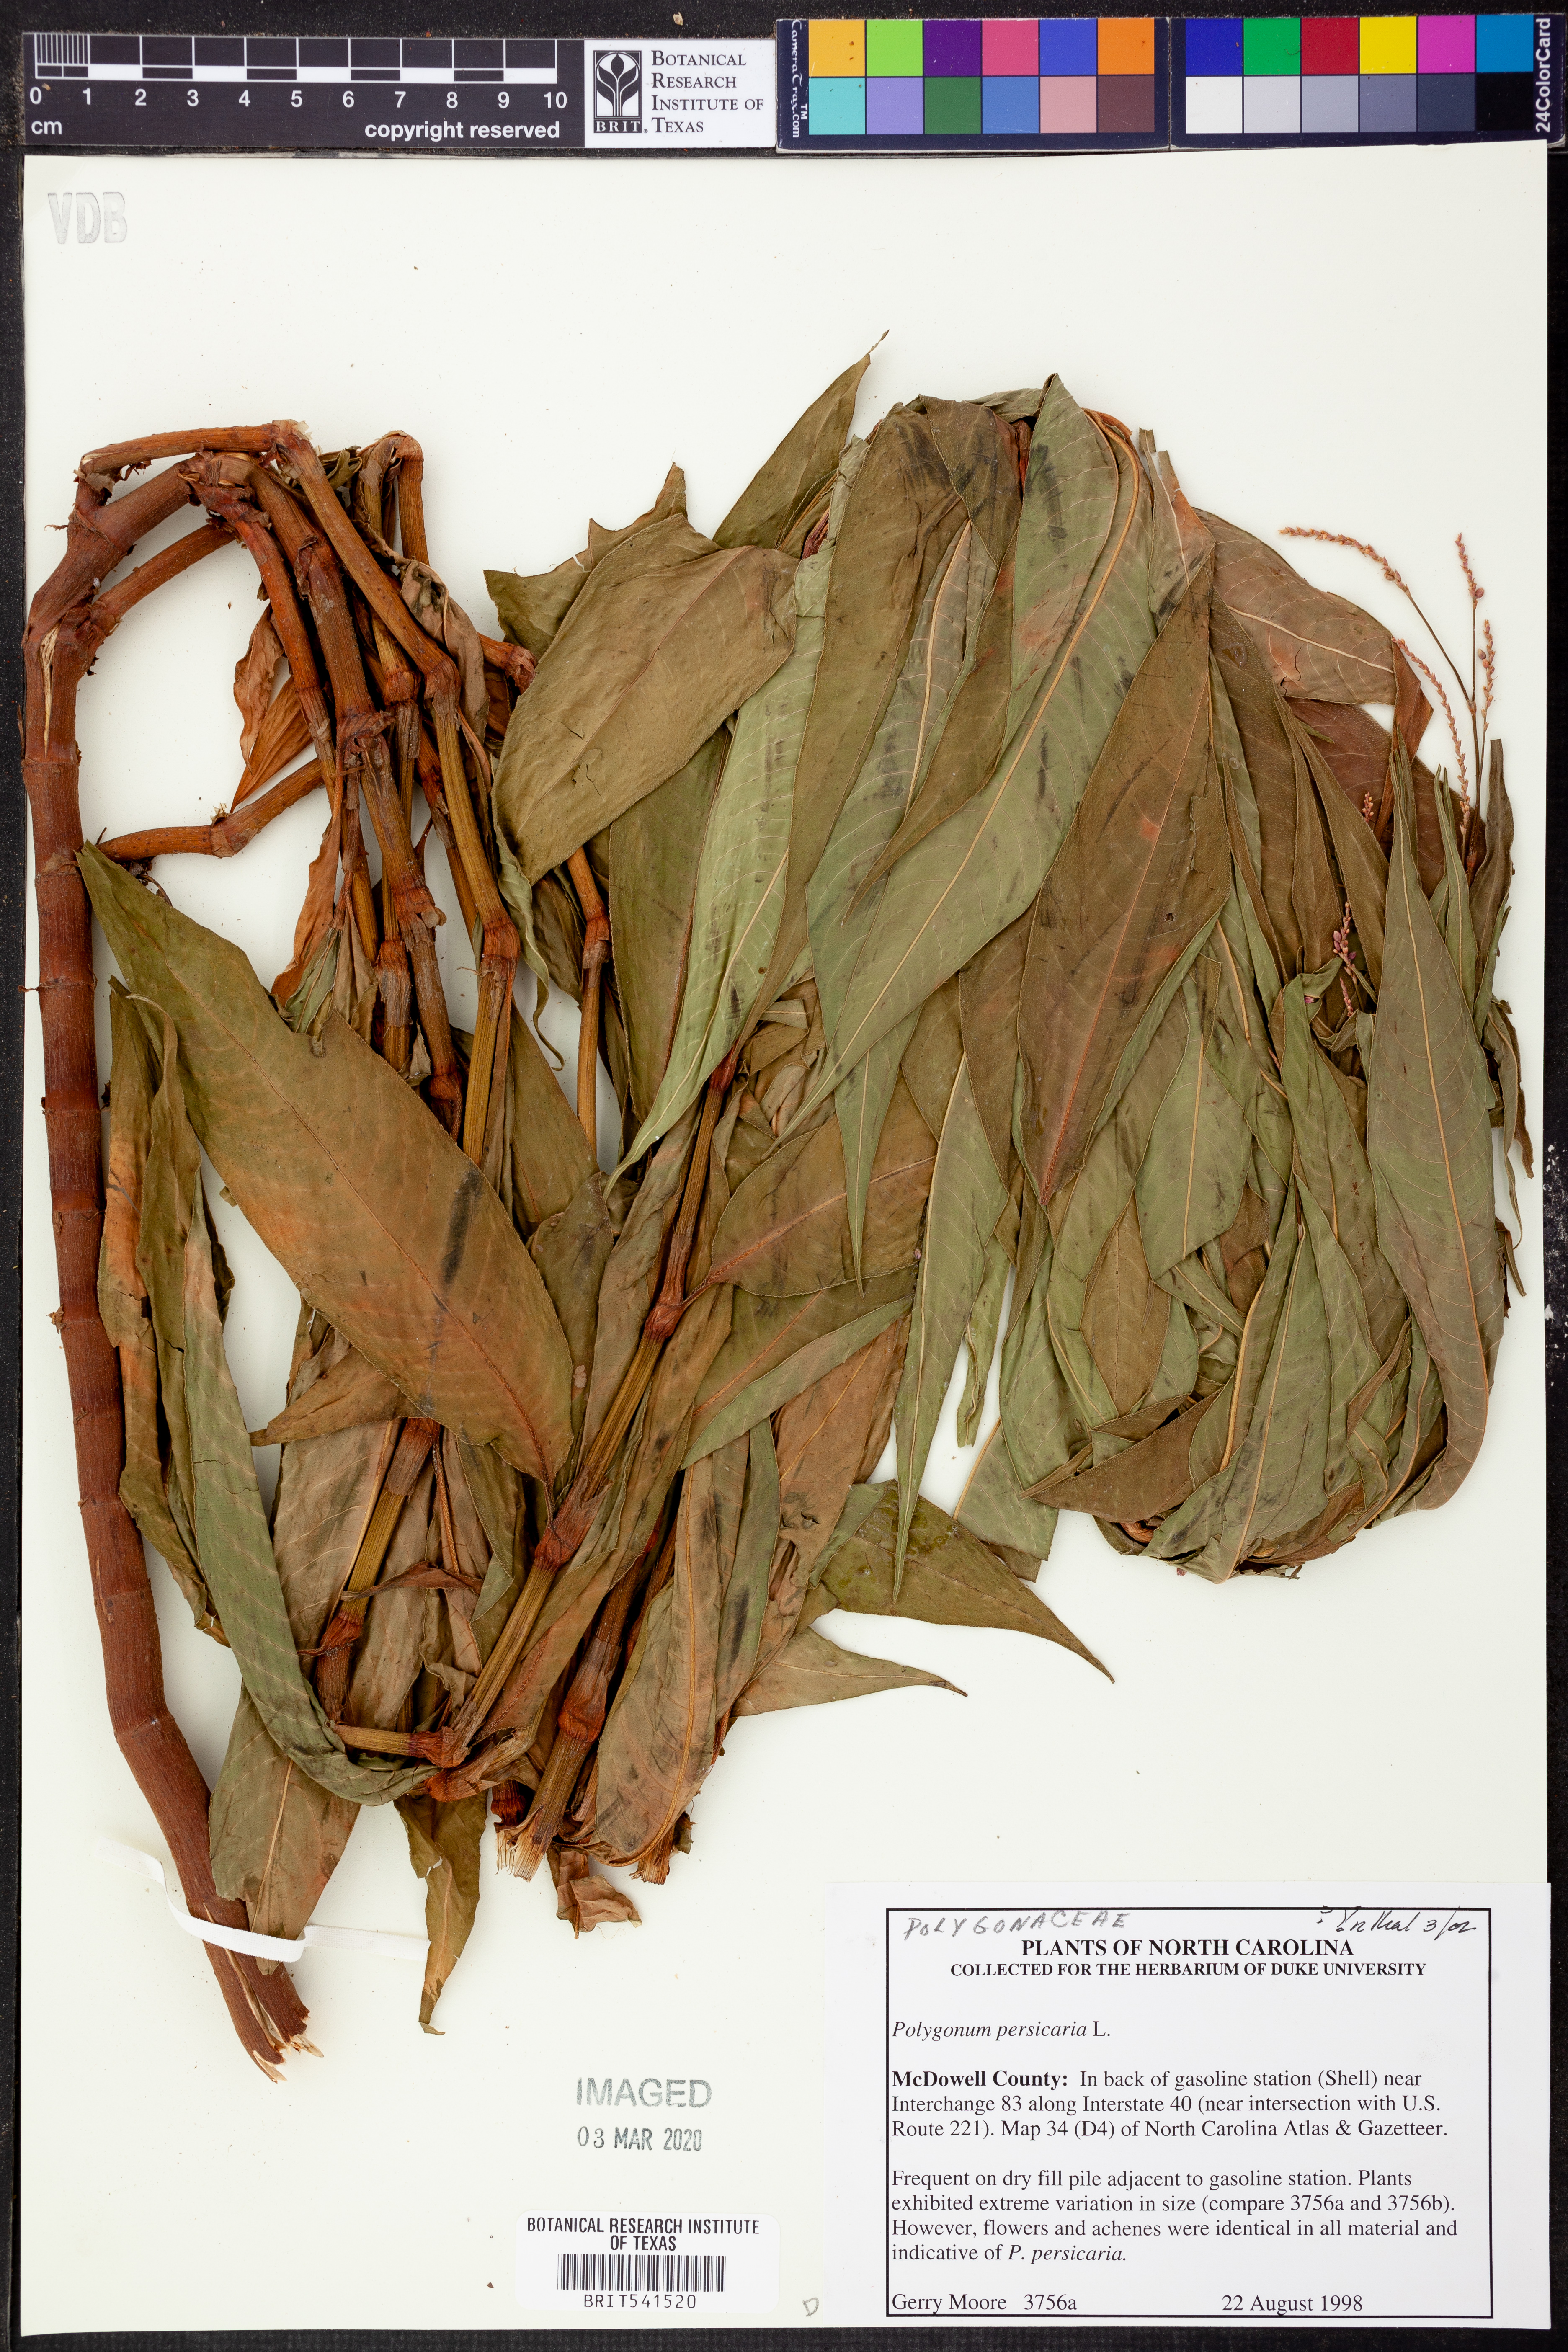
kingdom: Plantae
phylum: Tracheophyta
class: Magnoliopsida
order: Caryophyllales
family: Polygonaceae
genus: Persicaria
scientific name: Persicaria maculosa
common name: Redshank
